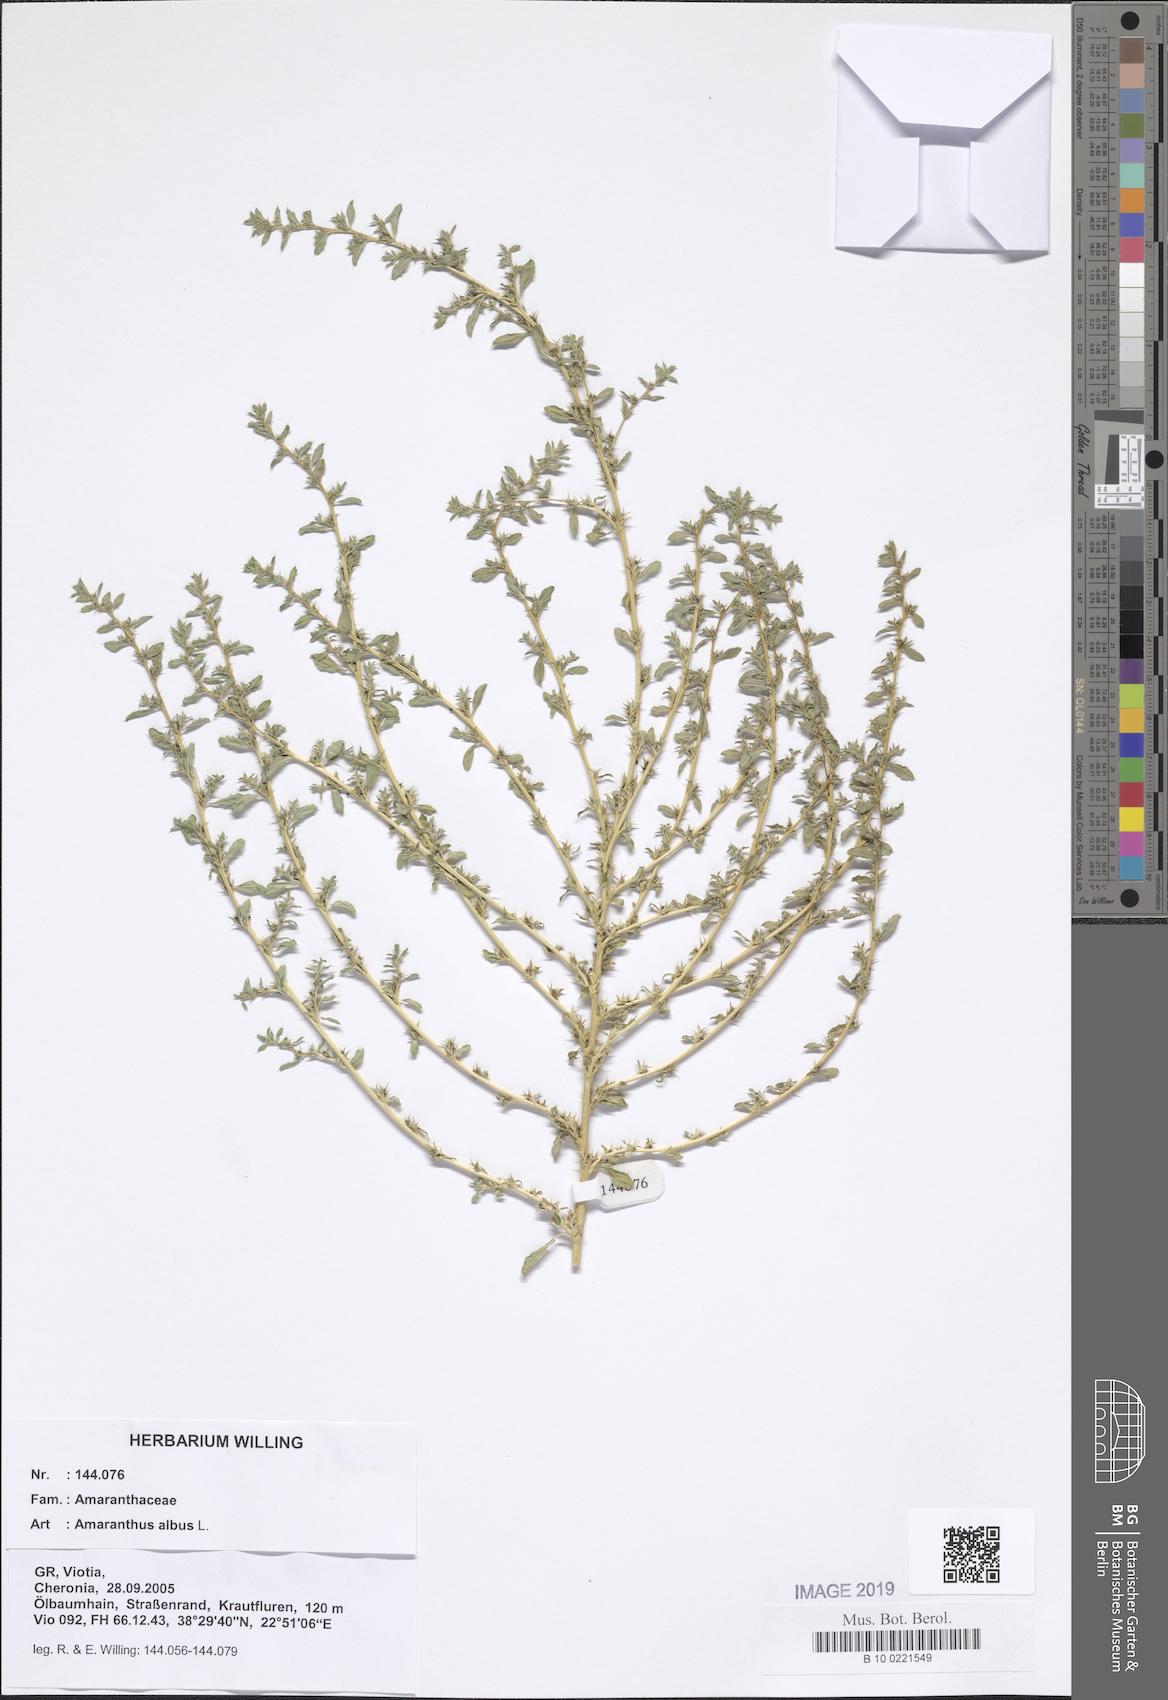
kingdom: Plantae
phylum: Tracheophyta
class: Magnoliopsida
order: Caryophyllales
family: Amaranthaceae
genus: Amaranthus
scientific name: Amaranthus albus
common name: White pigweed
